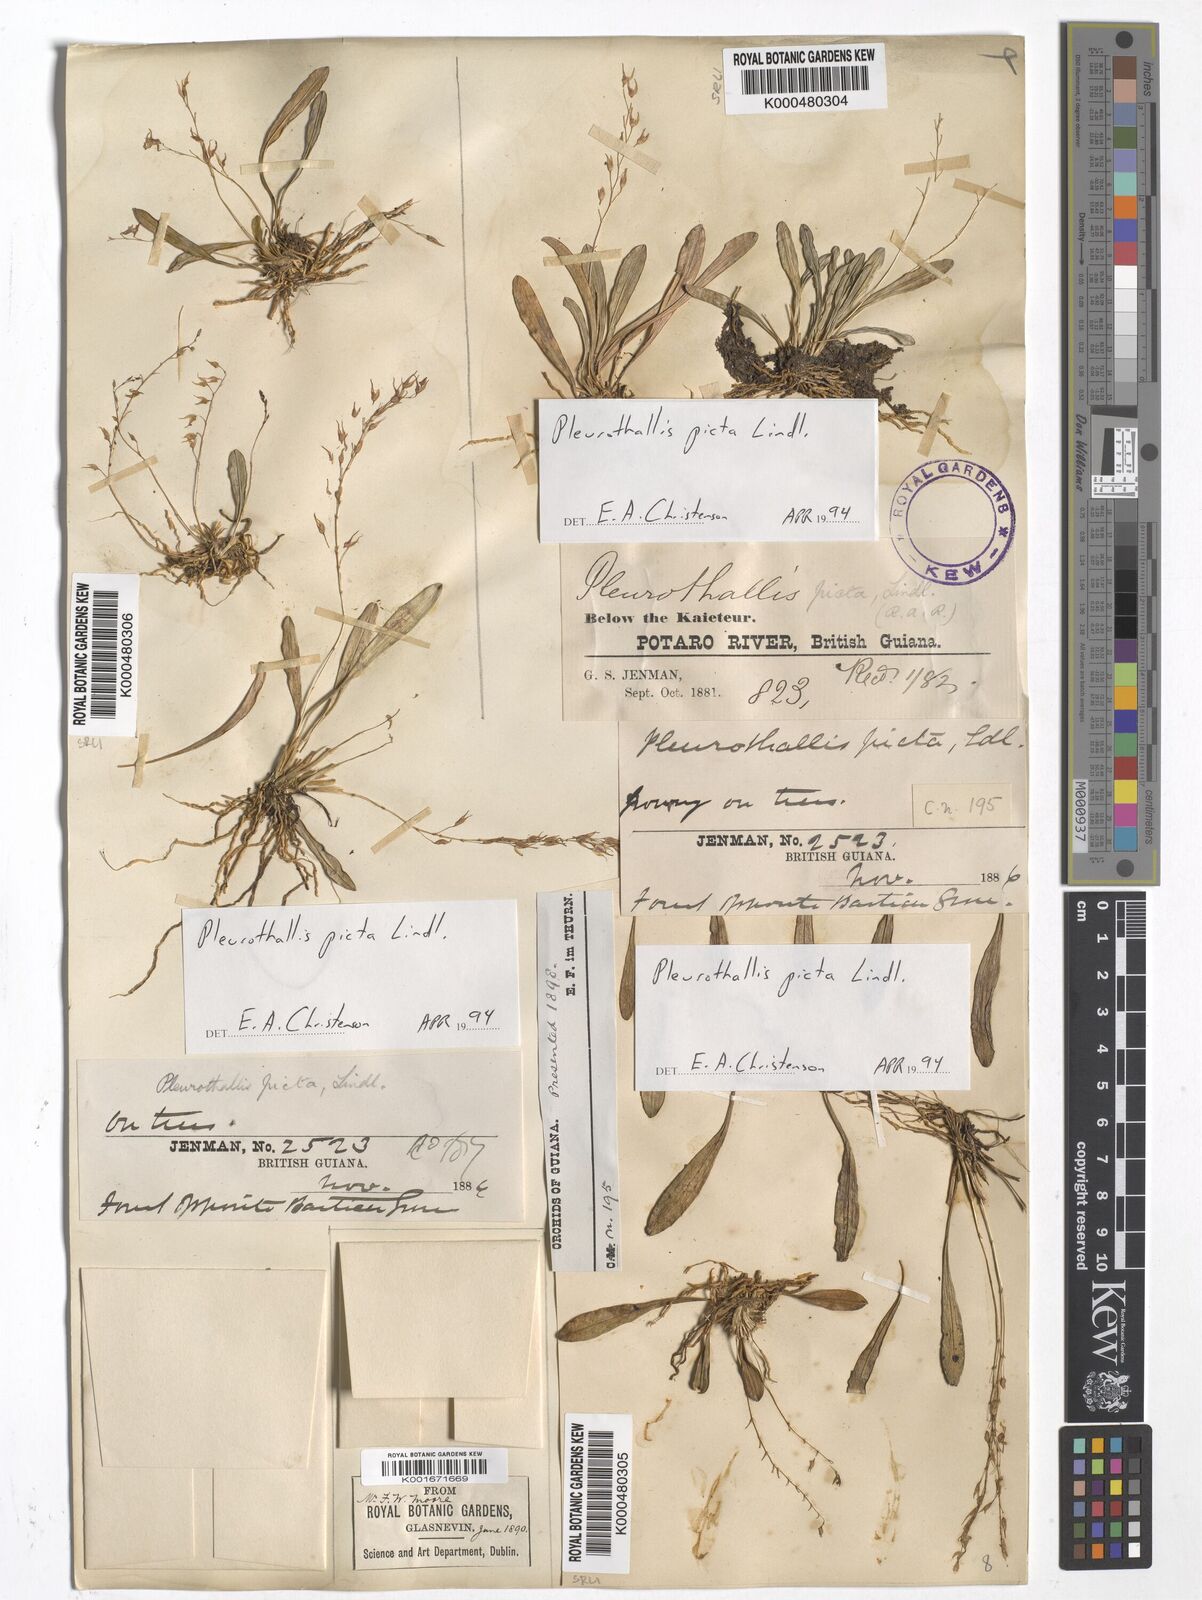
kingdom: Plantae
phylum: Tracheophyta
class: Liliopsida
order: Asparagales
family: Orchidaceae
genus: Specklinia
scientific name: Specklinia picta
